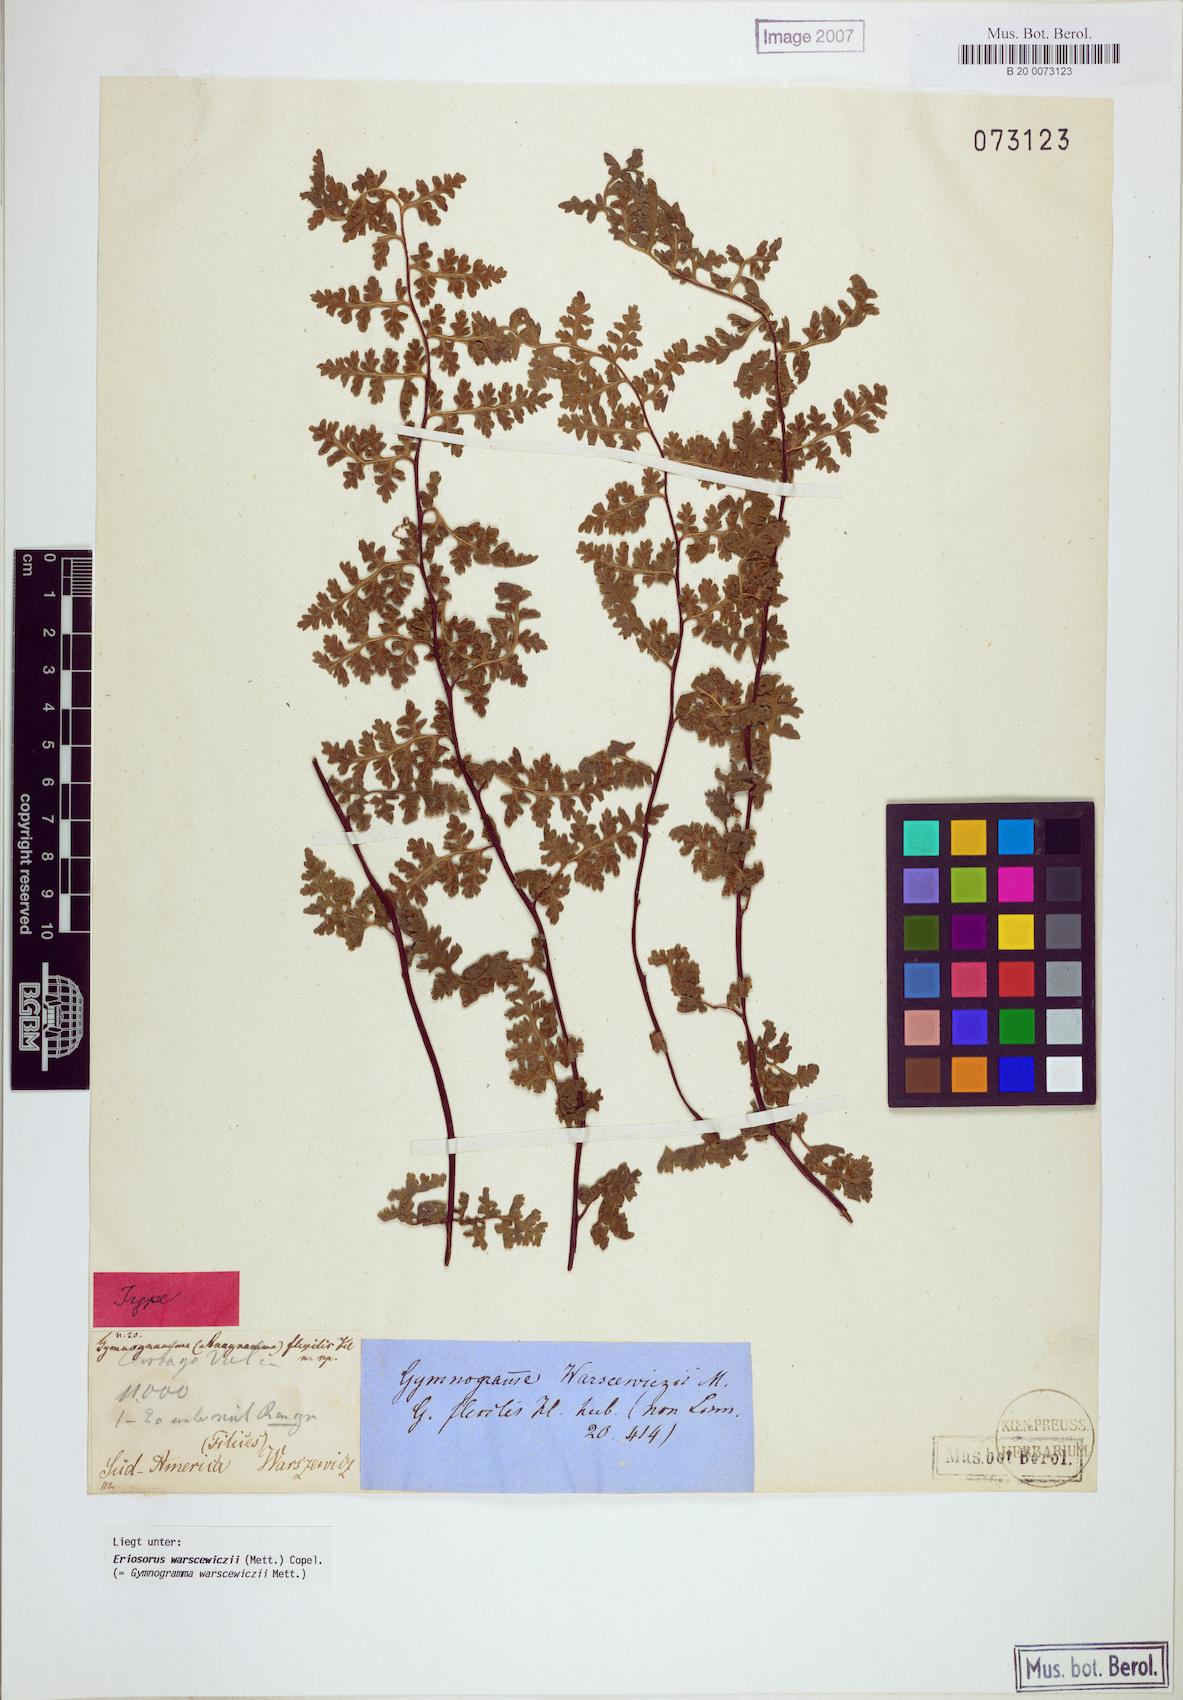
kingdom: Plantae
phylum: Tracheophyta
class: Polypodiopsida
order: Polypodiales
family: Pteridaceae
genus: Jamesonia
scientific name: Jamesonia warscewiczii
